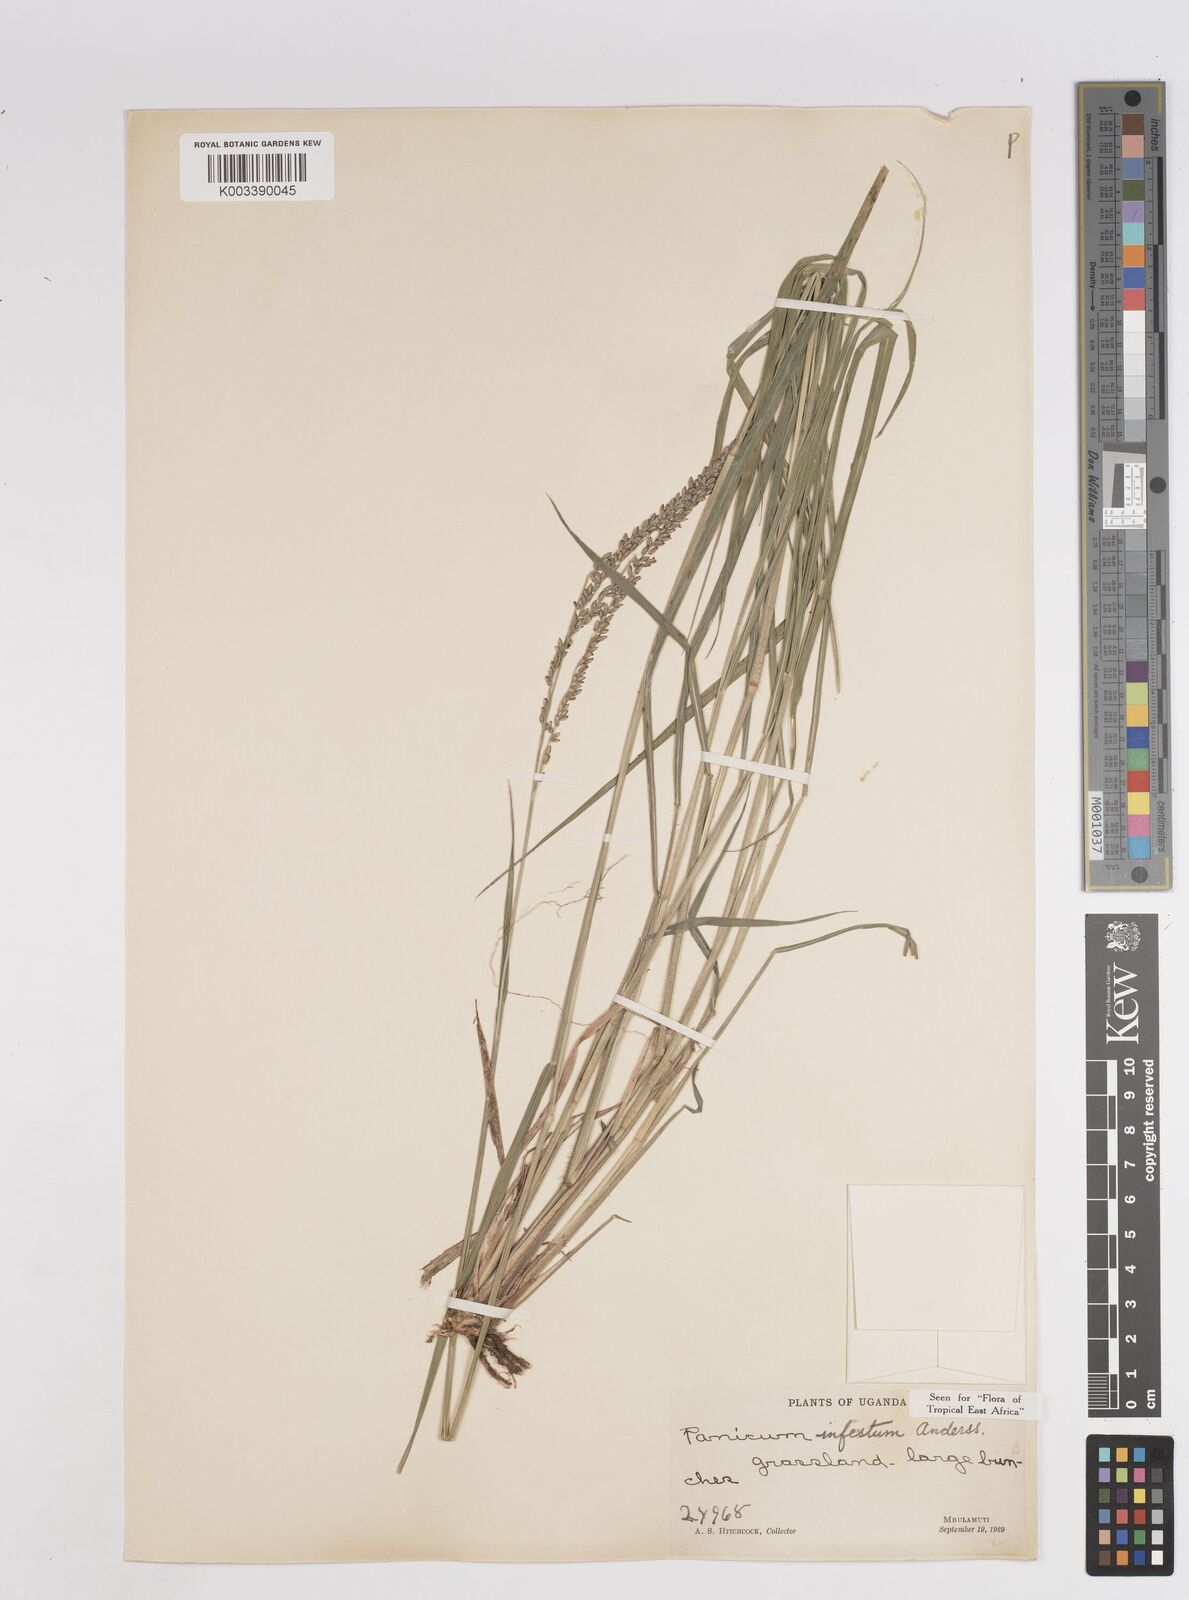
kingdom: Plantae
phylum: Tracheophyta
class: Liliopsida
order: Poales
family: Poaceae
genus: Megathyrsus
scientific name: Megathyrsus infestus
